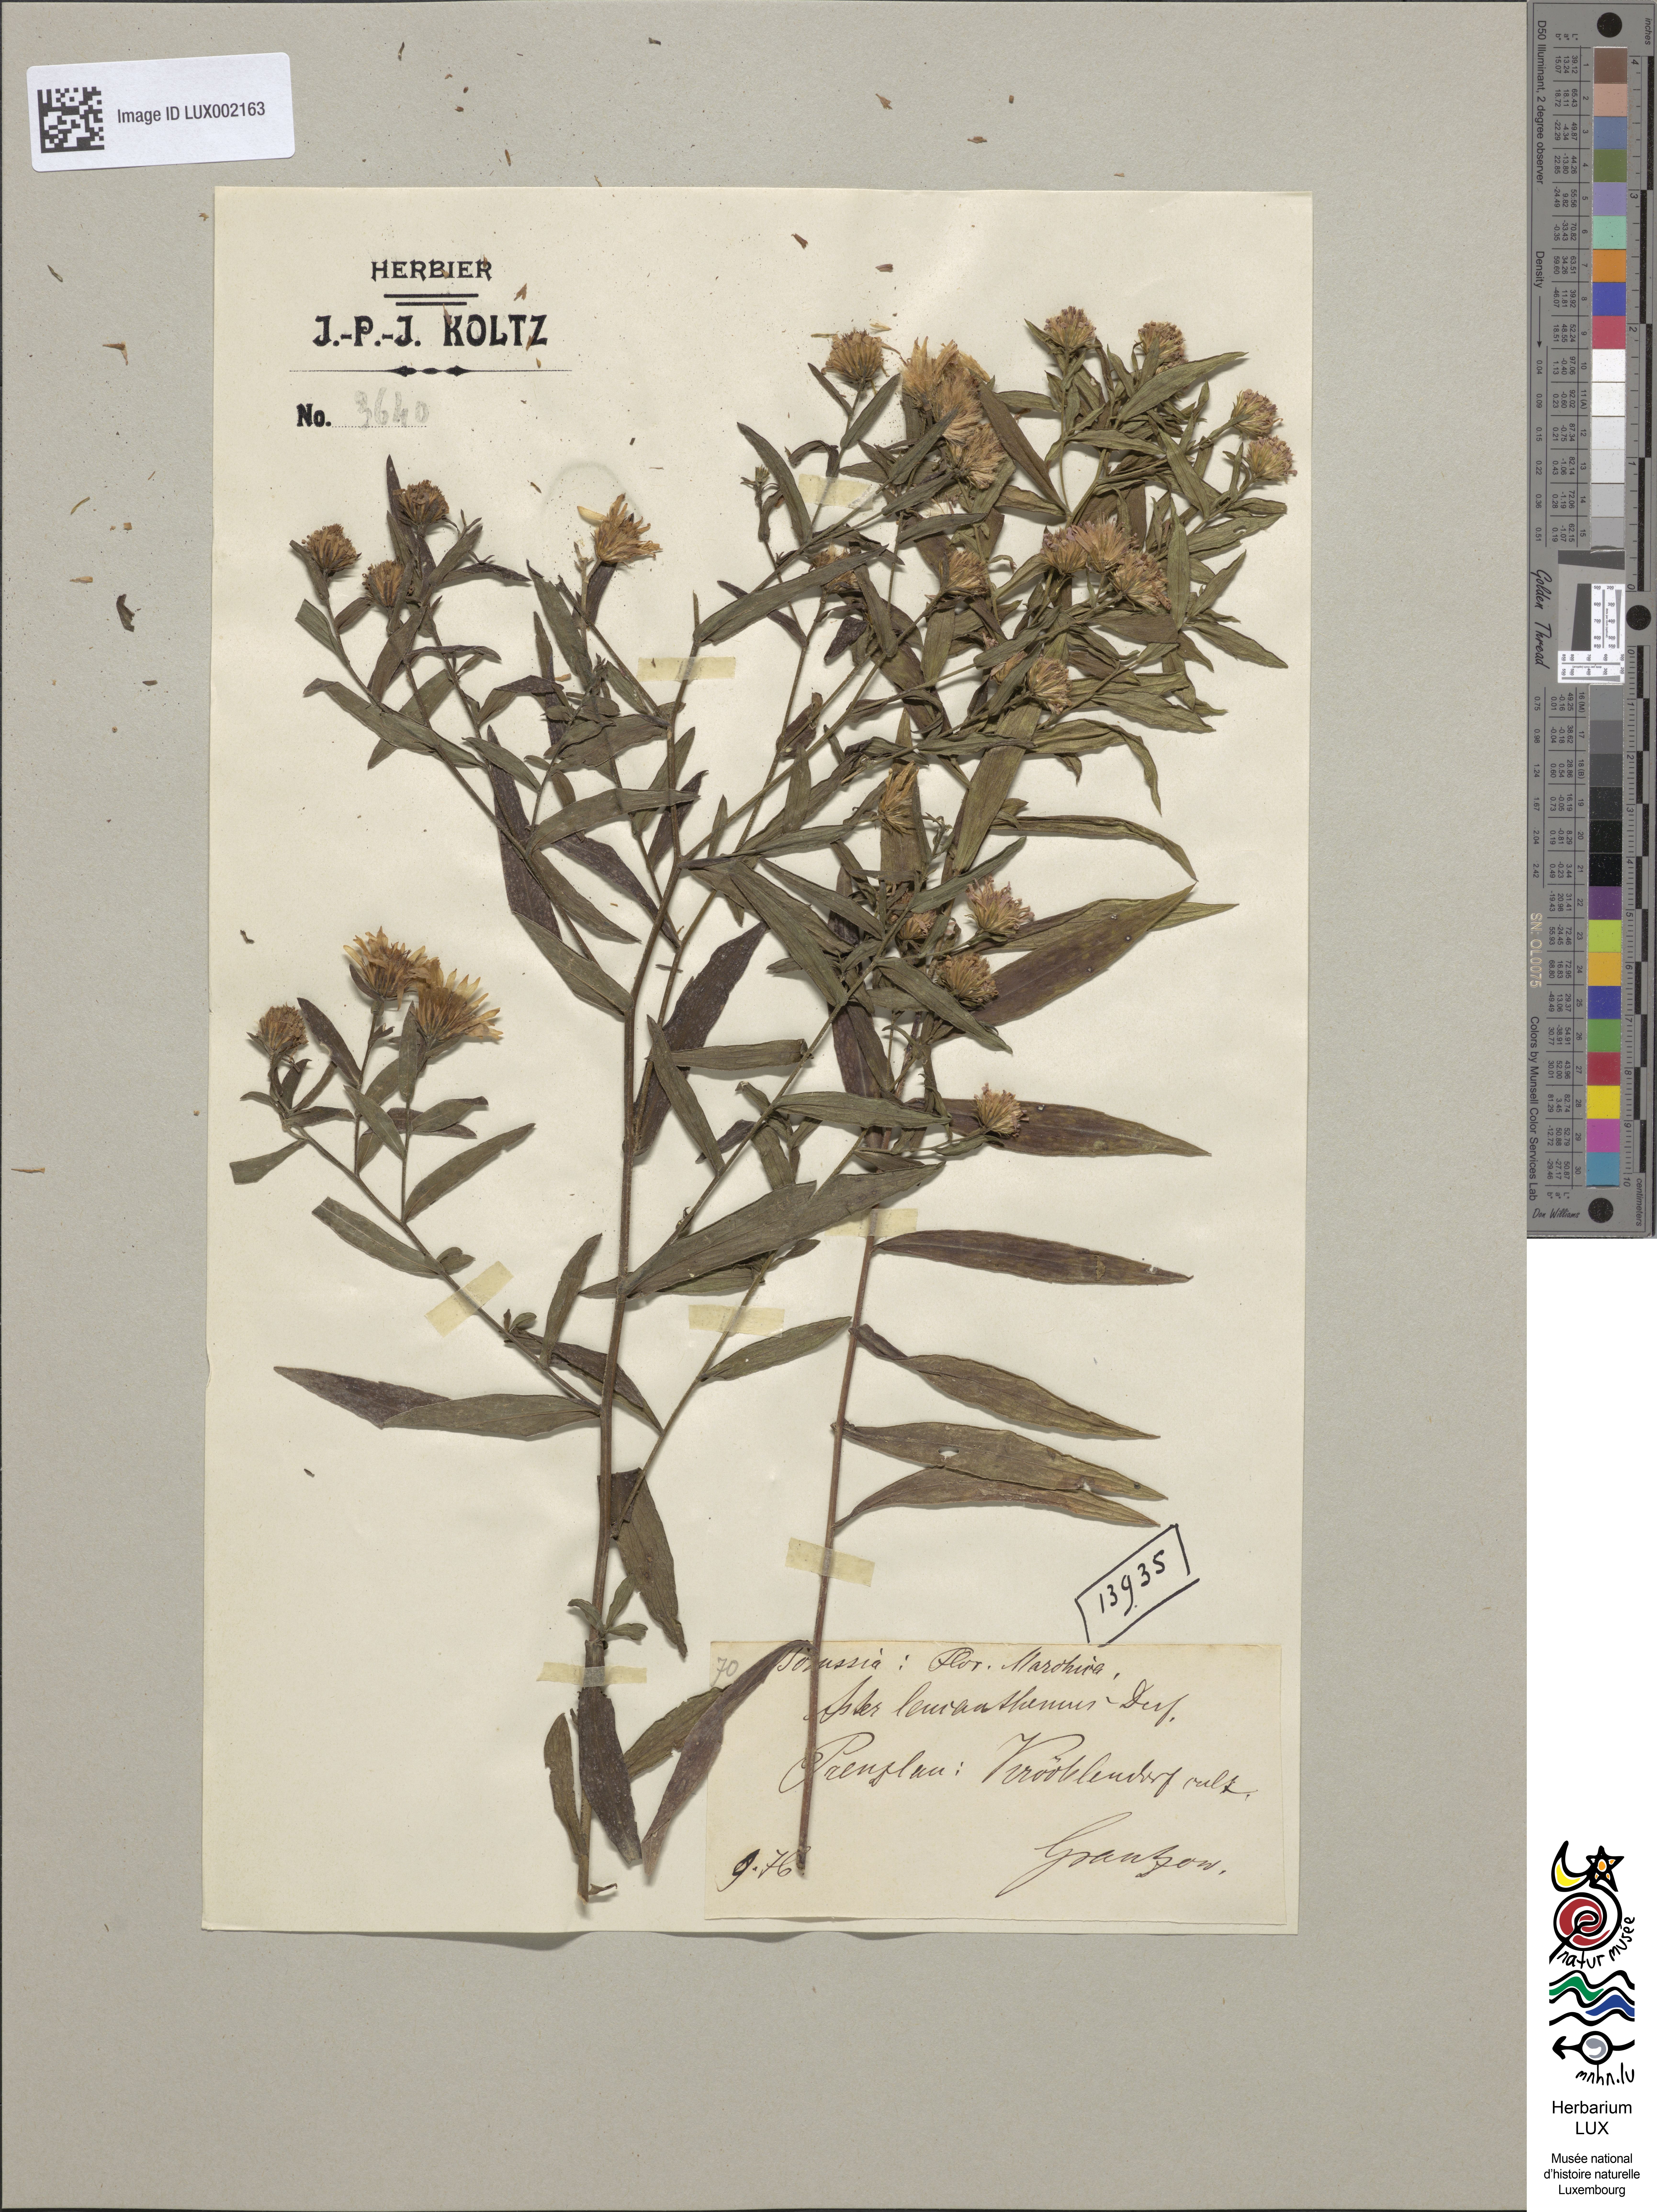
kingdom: Plantae
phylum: Tracheophyta
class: Magnoliopsida
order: Asterales
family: Asteraceae
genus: Symphyotrichum
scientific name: Symphyotrichum tradescantii
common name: Shore aster
